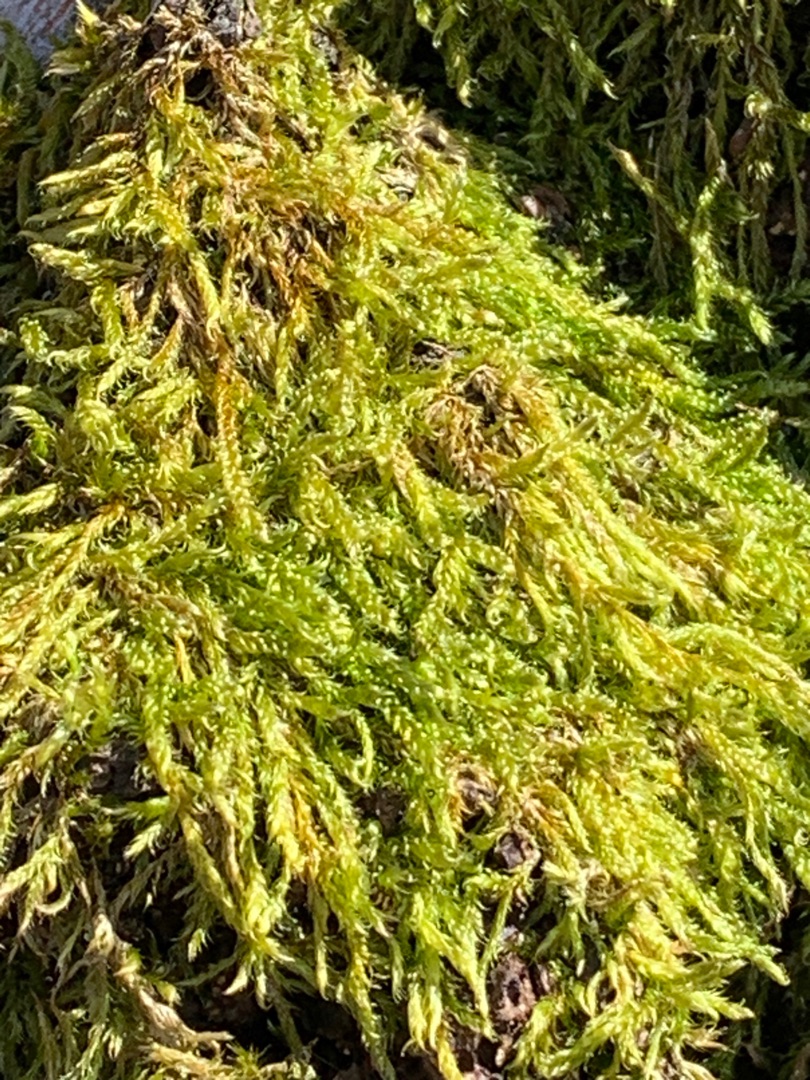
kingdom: Plantae
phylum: Bryophyta
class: Bryopsida
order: Hypnales
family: Hypnaceae
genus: Hypnum
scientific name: Hypnum
